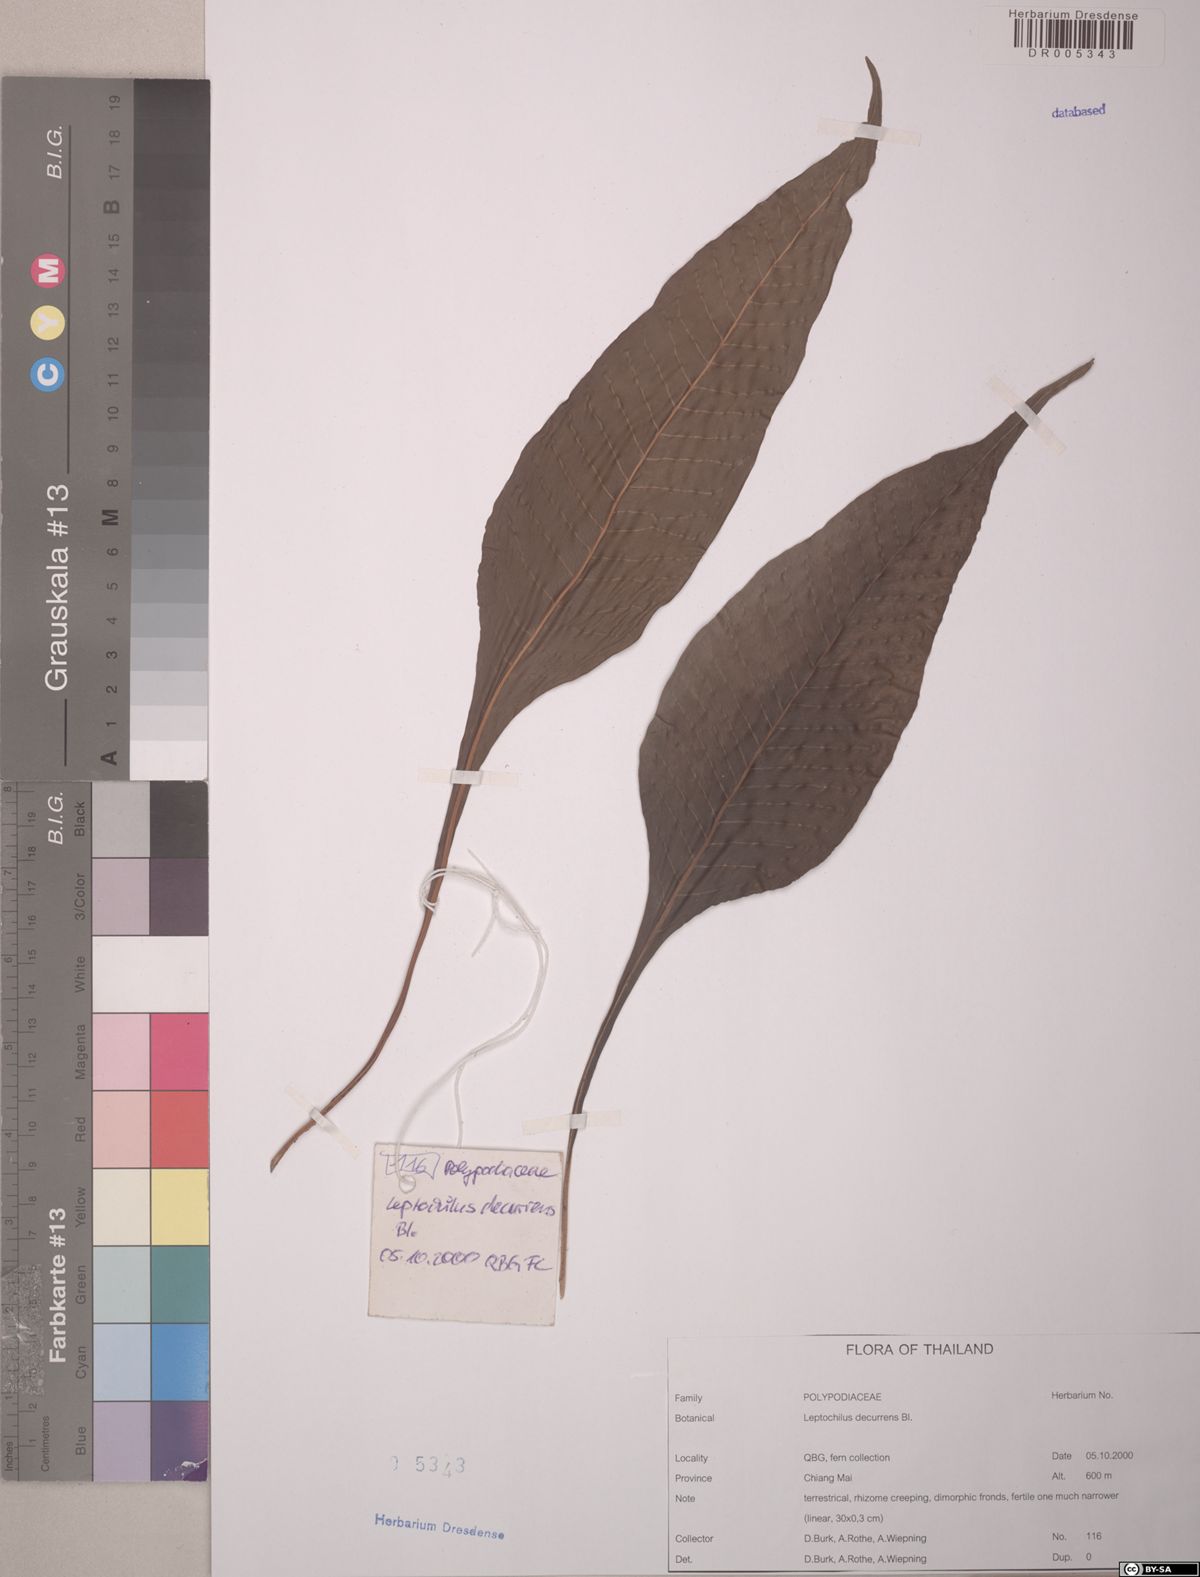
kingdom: Plantae
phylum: Tracheophyta
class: Polypodiopsida
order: Polypodiales
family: Polypodiaceae
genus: Leptochilus
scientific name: Leptochilus decurrens
